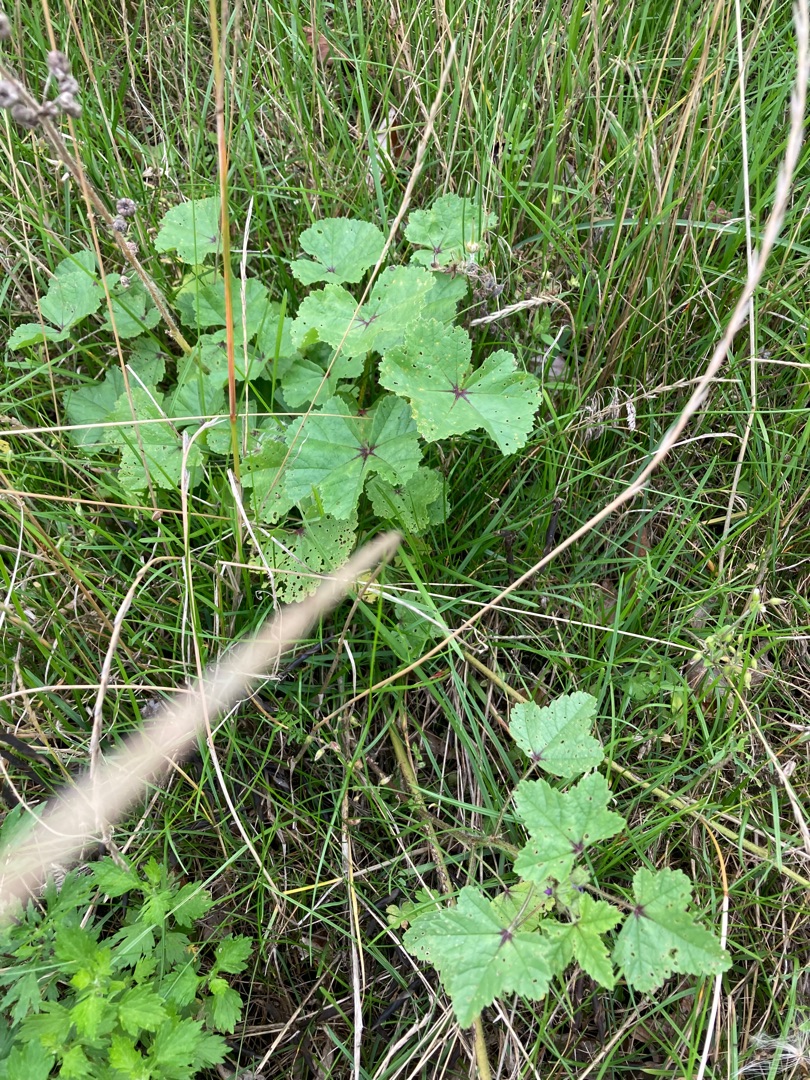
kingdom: Plantae
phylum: Tracheophyta
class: Magnoliopsida
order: Malvales
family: Malvaceae
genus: Malva
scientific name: Malva sylvestris
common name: Almindelig katost
